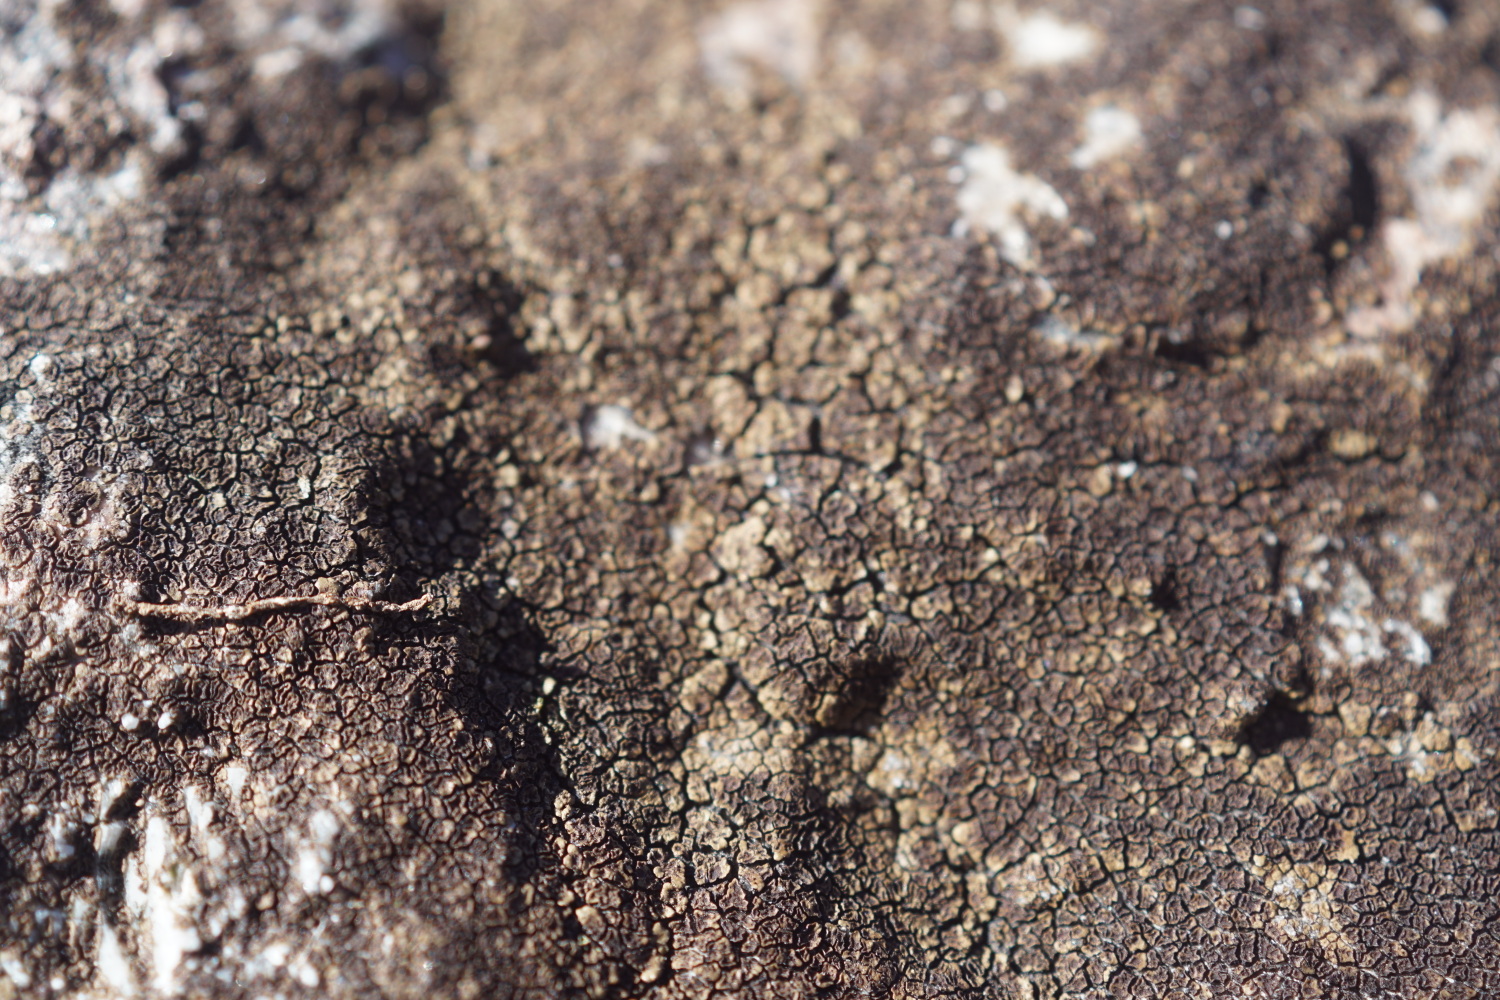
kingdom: Fungi
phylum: Ascomycota
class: Lecanoromycetes
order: Acarosporales
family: Acarosporaceae
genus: Acarospora
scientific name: Acarospora fuscata
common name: brun småsporelav
